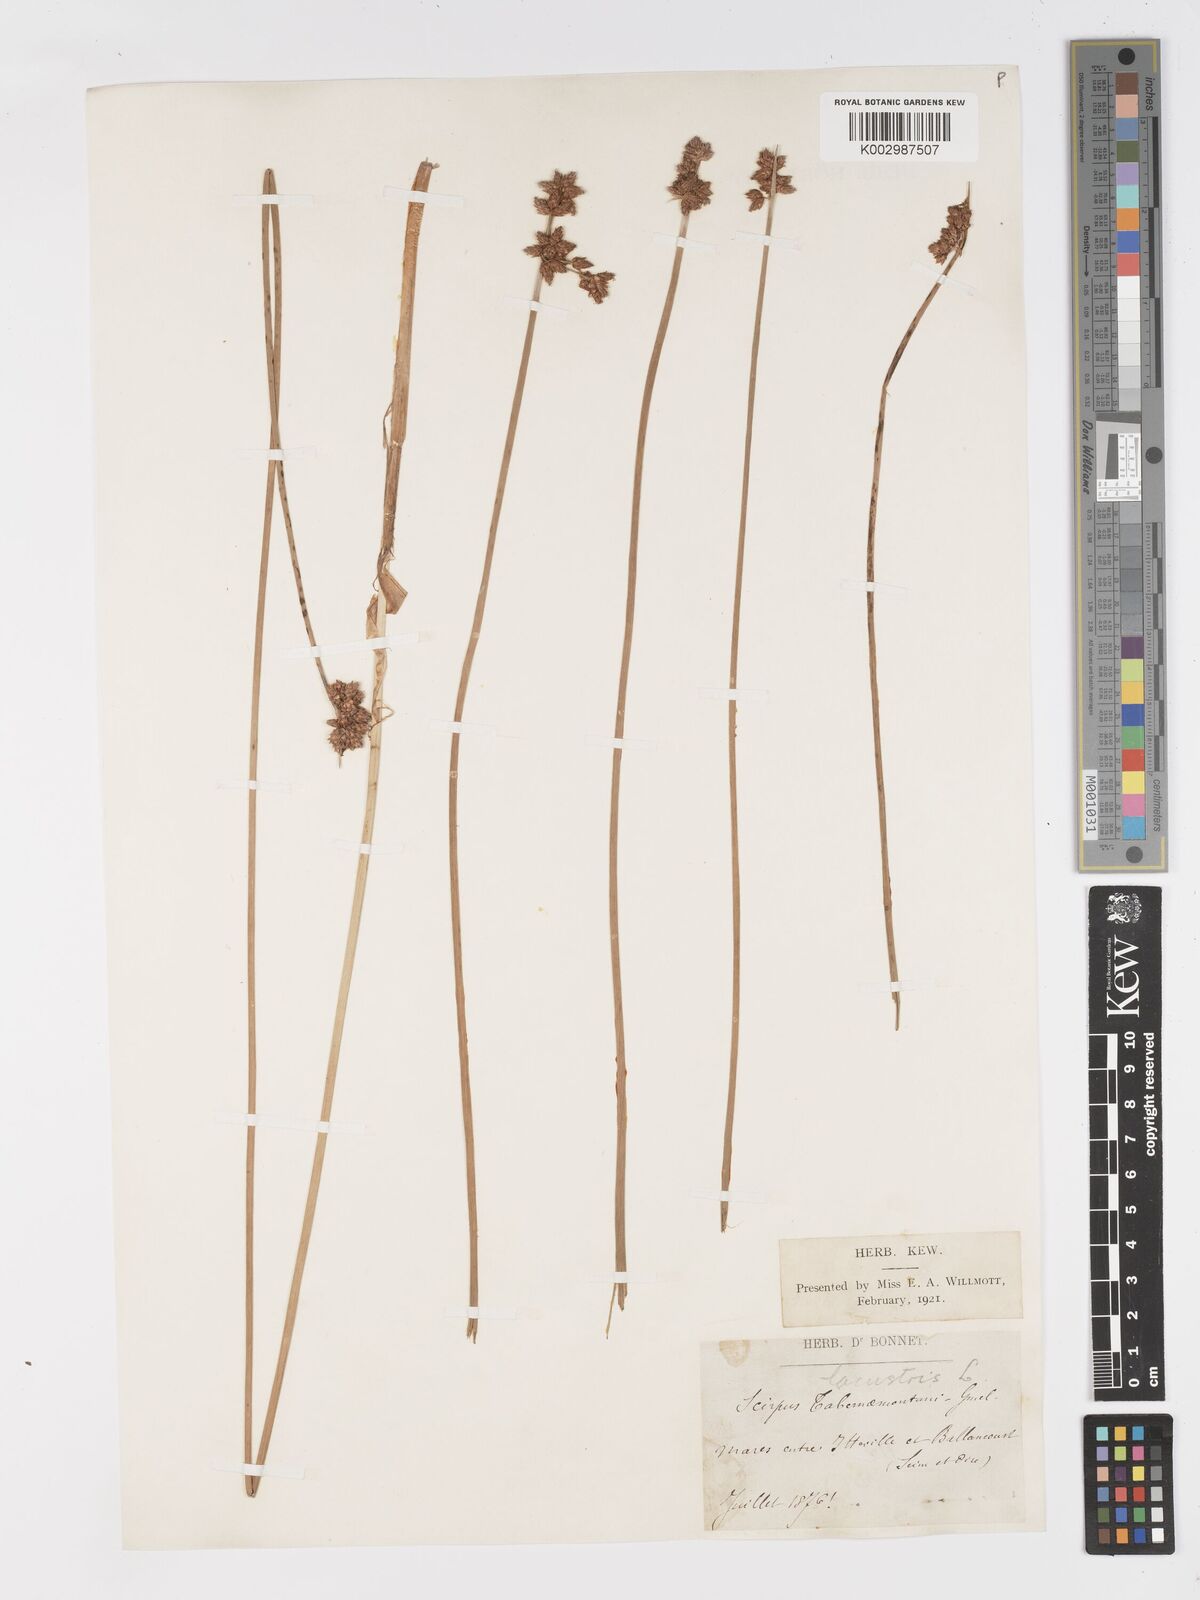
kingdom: Plantae
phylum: Tracheophyta
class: Liliopsida
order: Poales
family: Cyperaceae
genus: Schoenoplectus
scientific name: Schoenoplectus lacustris
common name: Common club-rush
